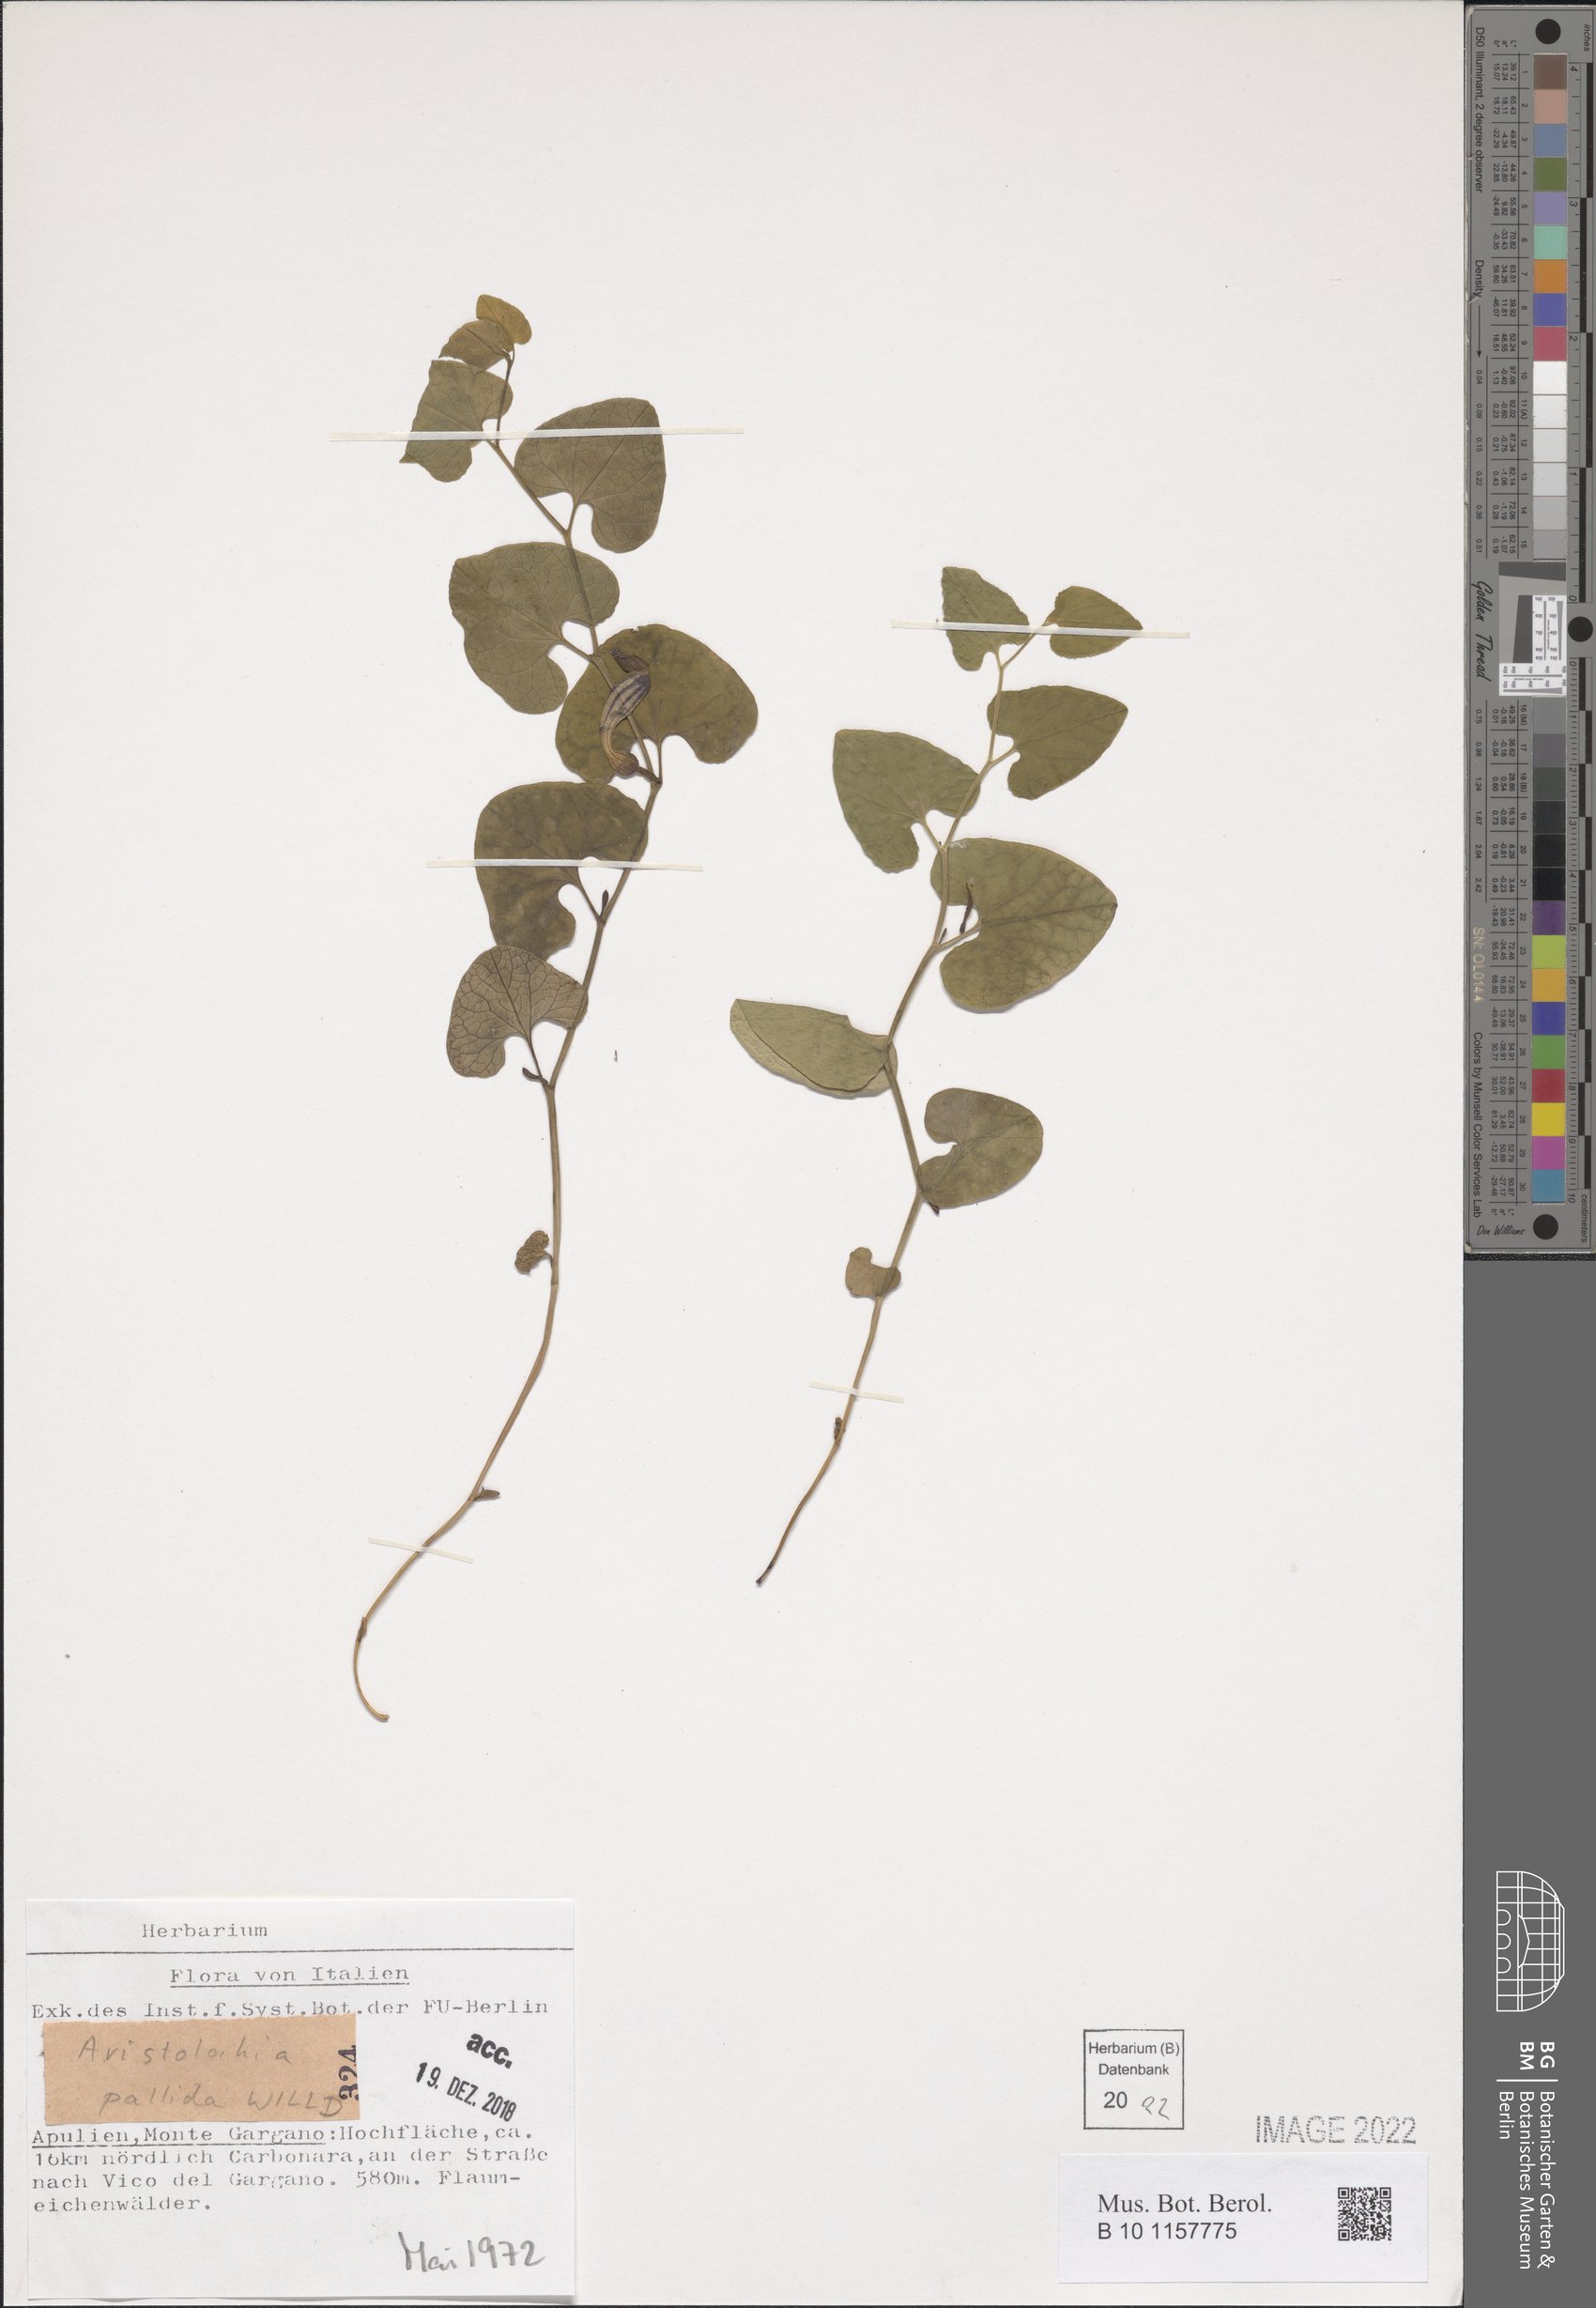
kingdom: Plantae
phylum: Tracheophyta
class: Magnoliopsida
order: Piperales
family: Aristolochiaceae
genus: Aristolochia
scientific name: Aristolochia pallida
